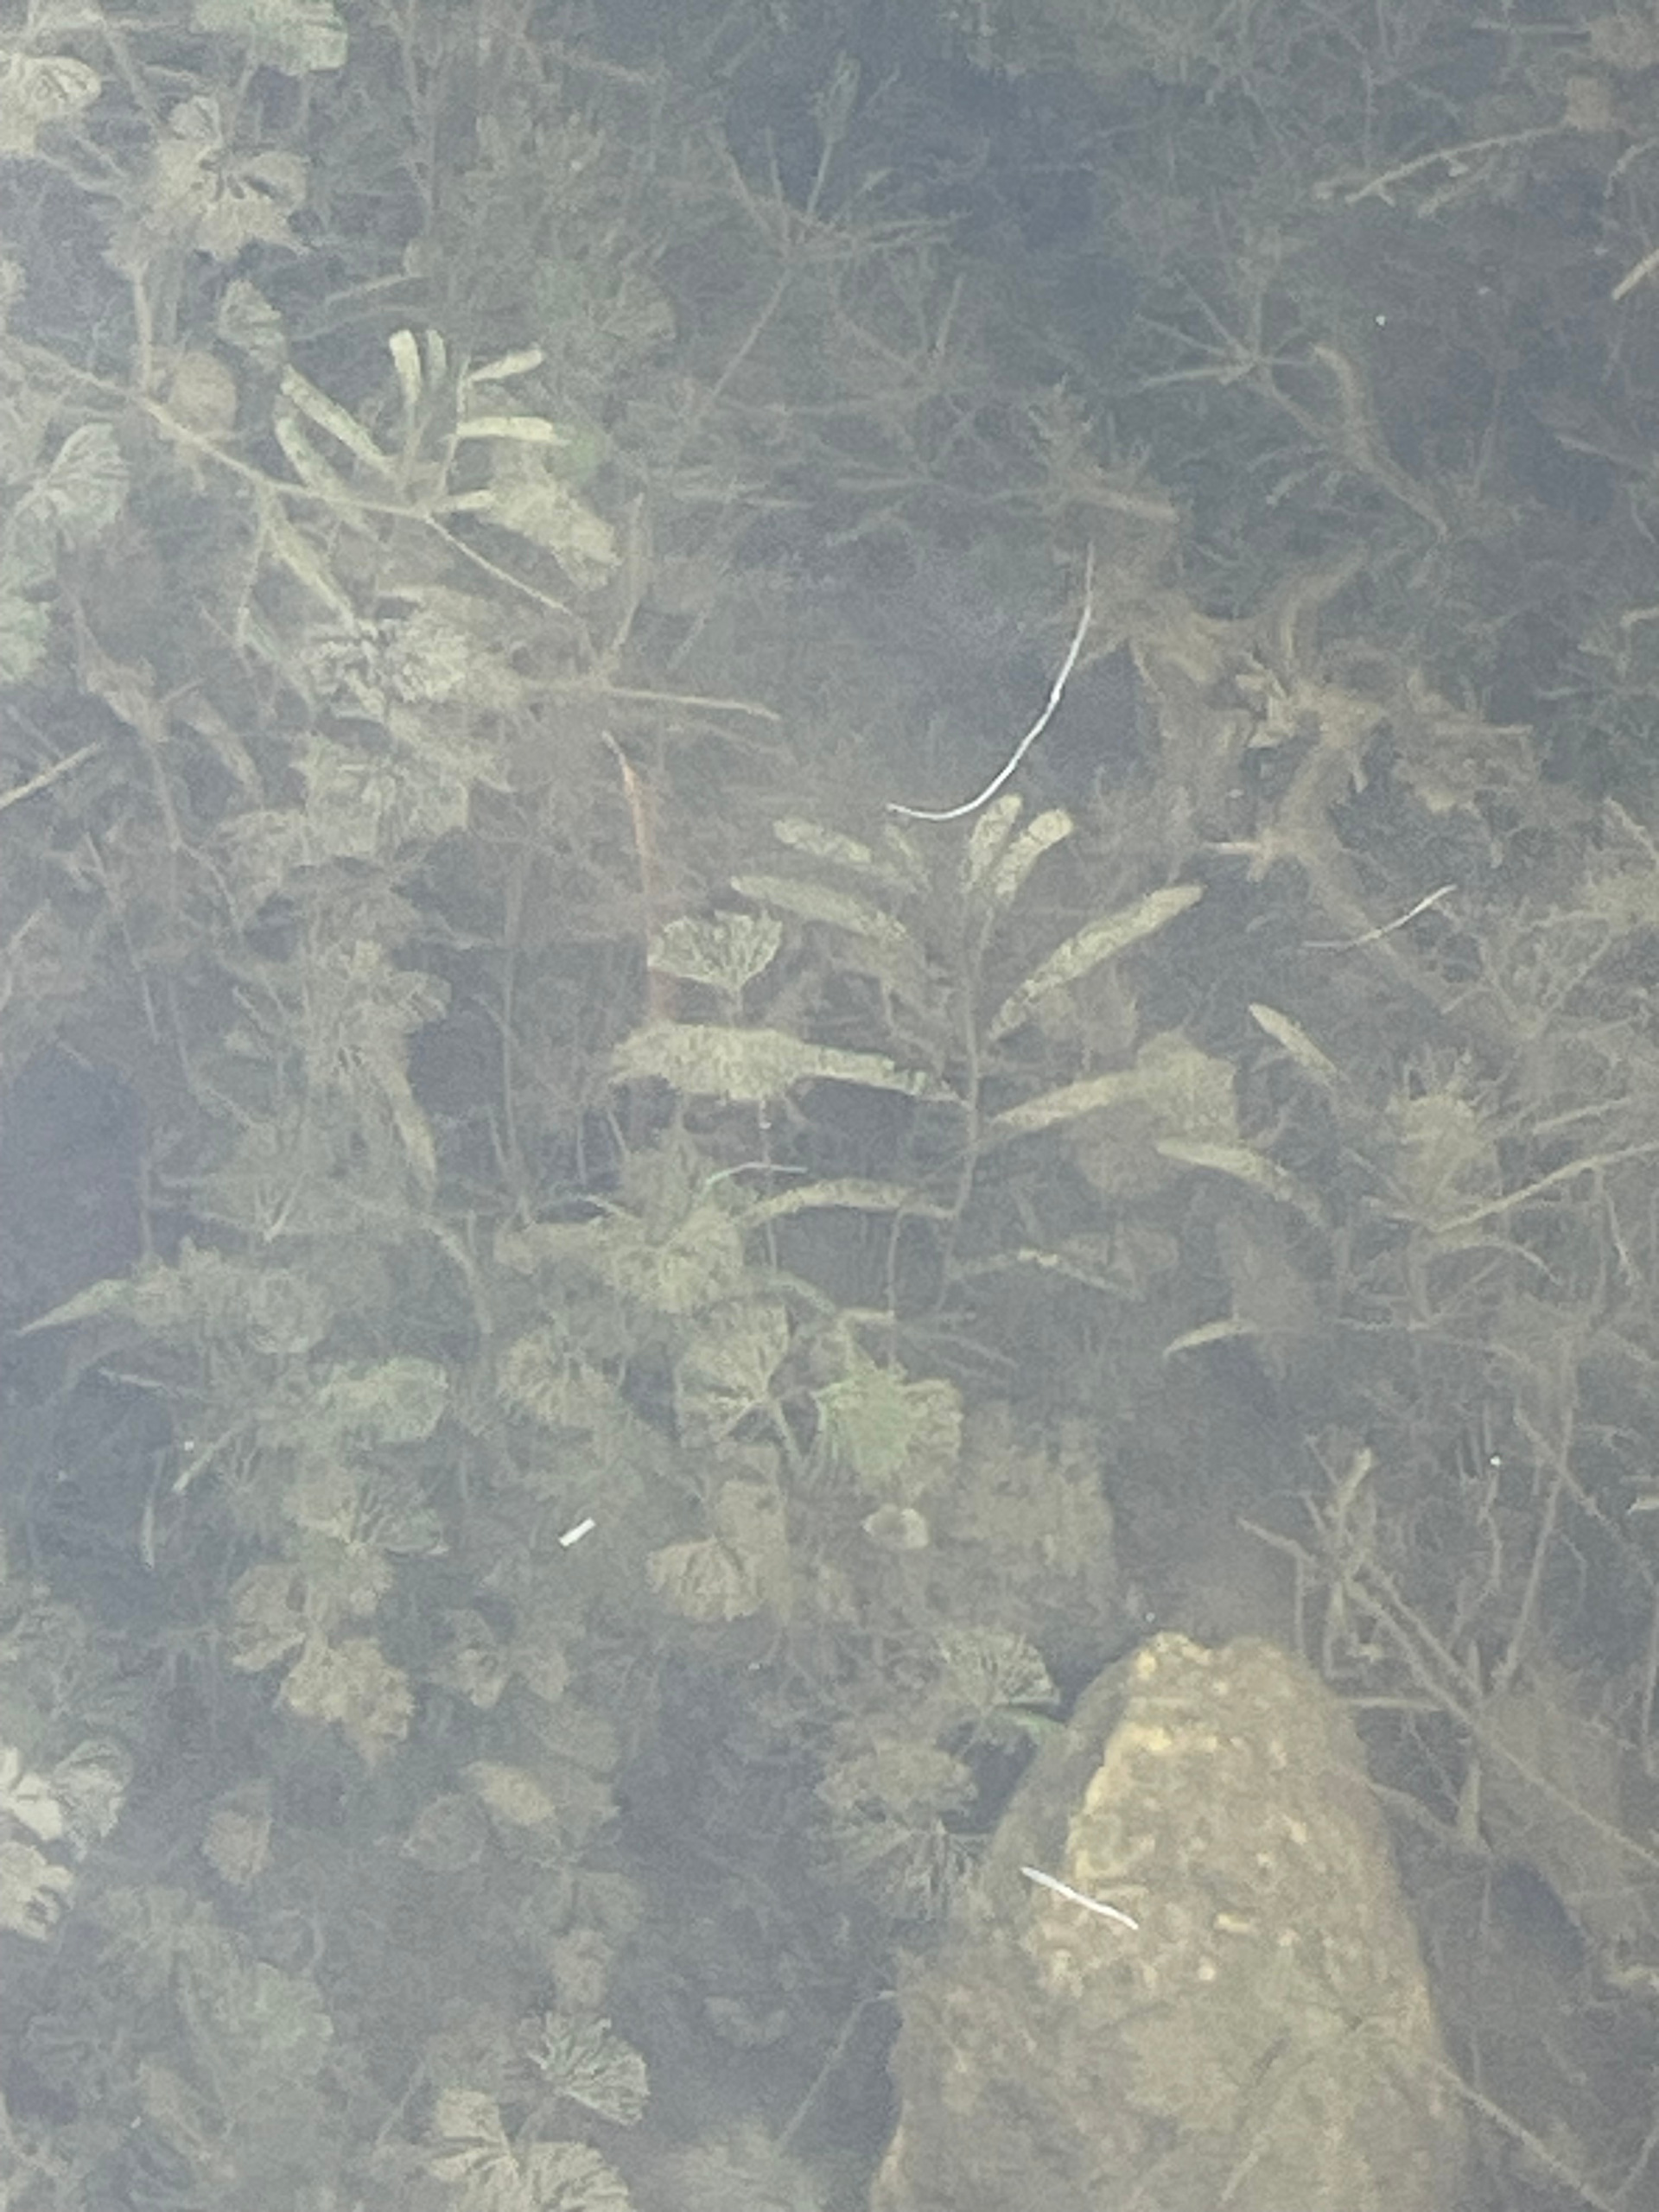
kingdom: Plantae
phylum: Tracheophyta
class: Magnoliopsida
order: Ranunculales
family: Ranunculaceae
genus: Ranunculus
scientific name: Ranunculus circinatus
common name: Kredsbladet vandranunkel
